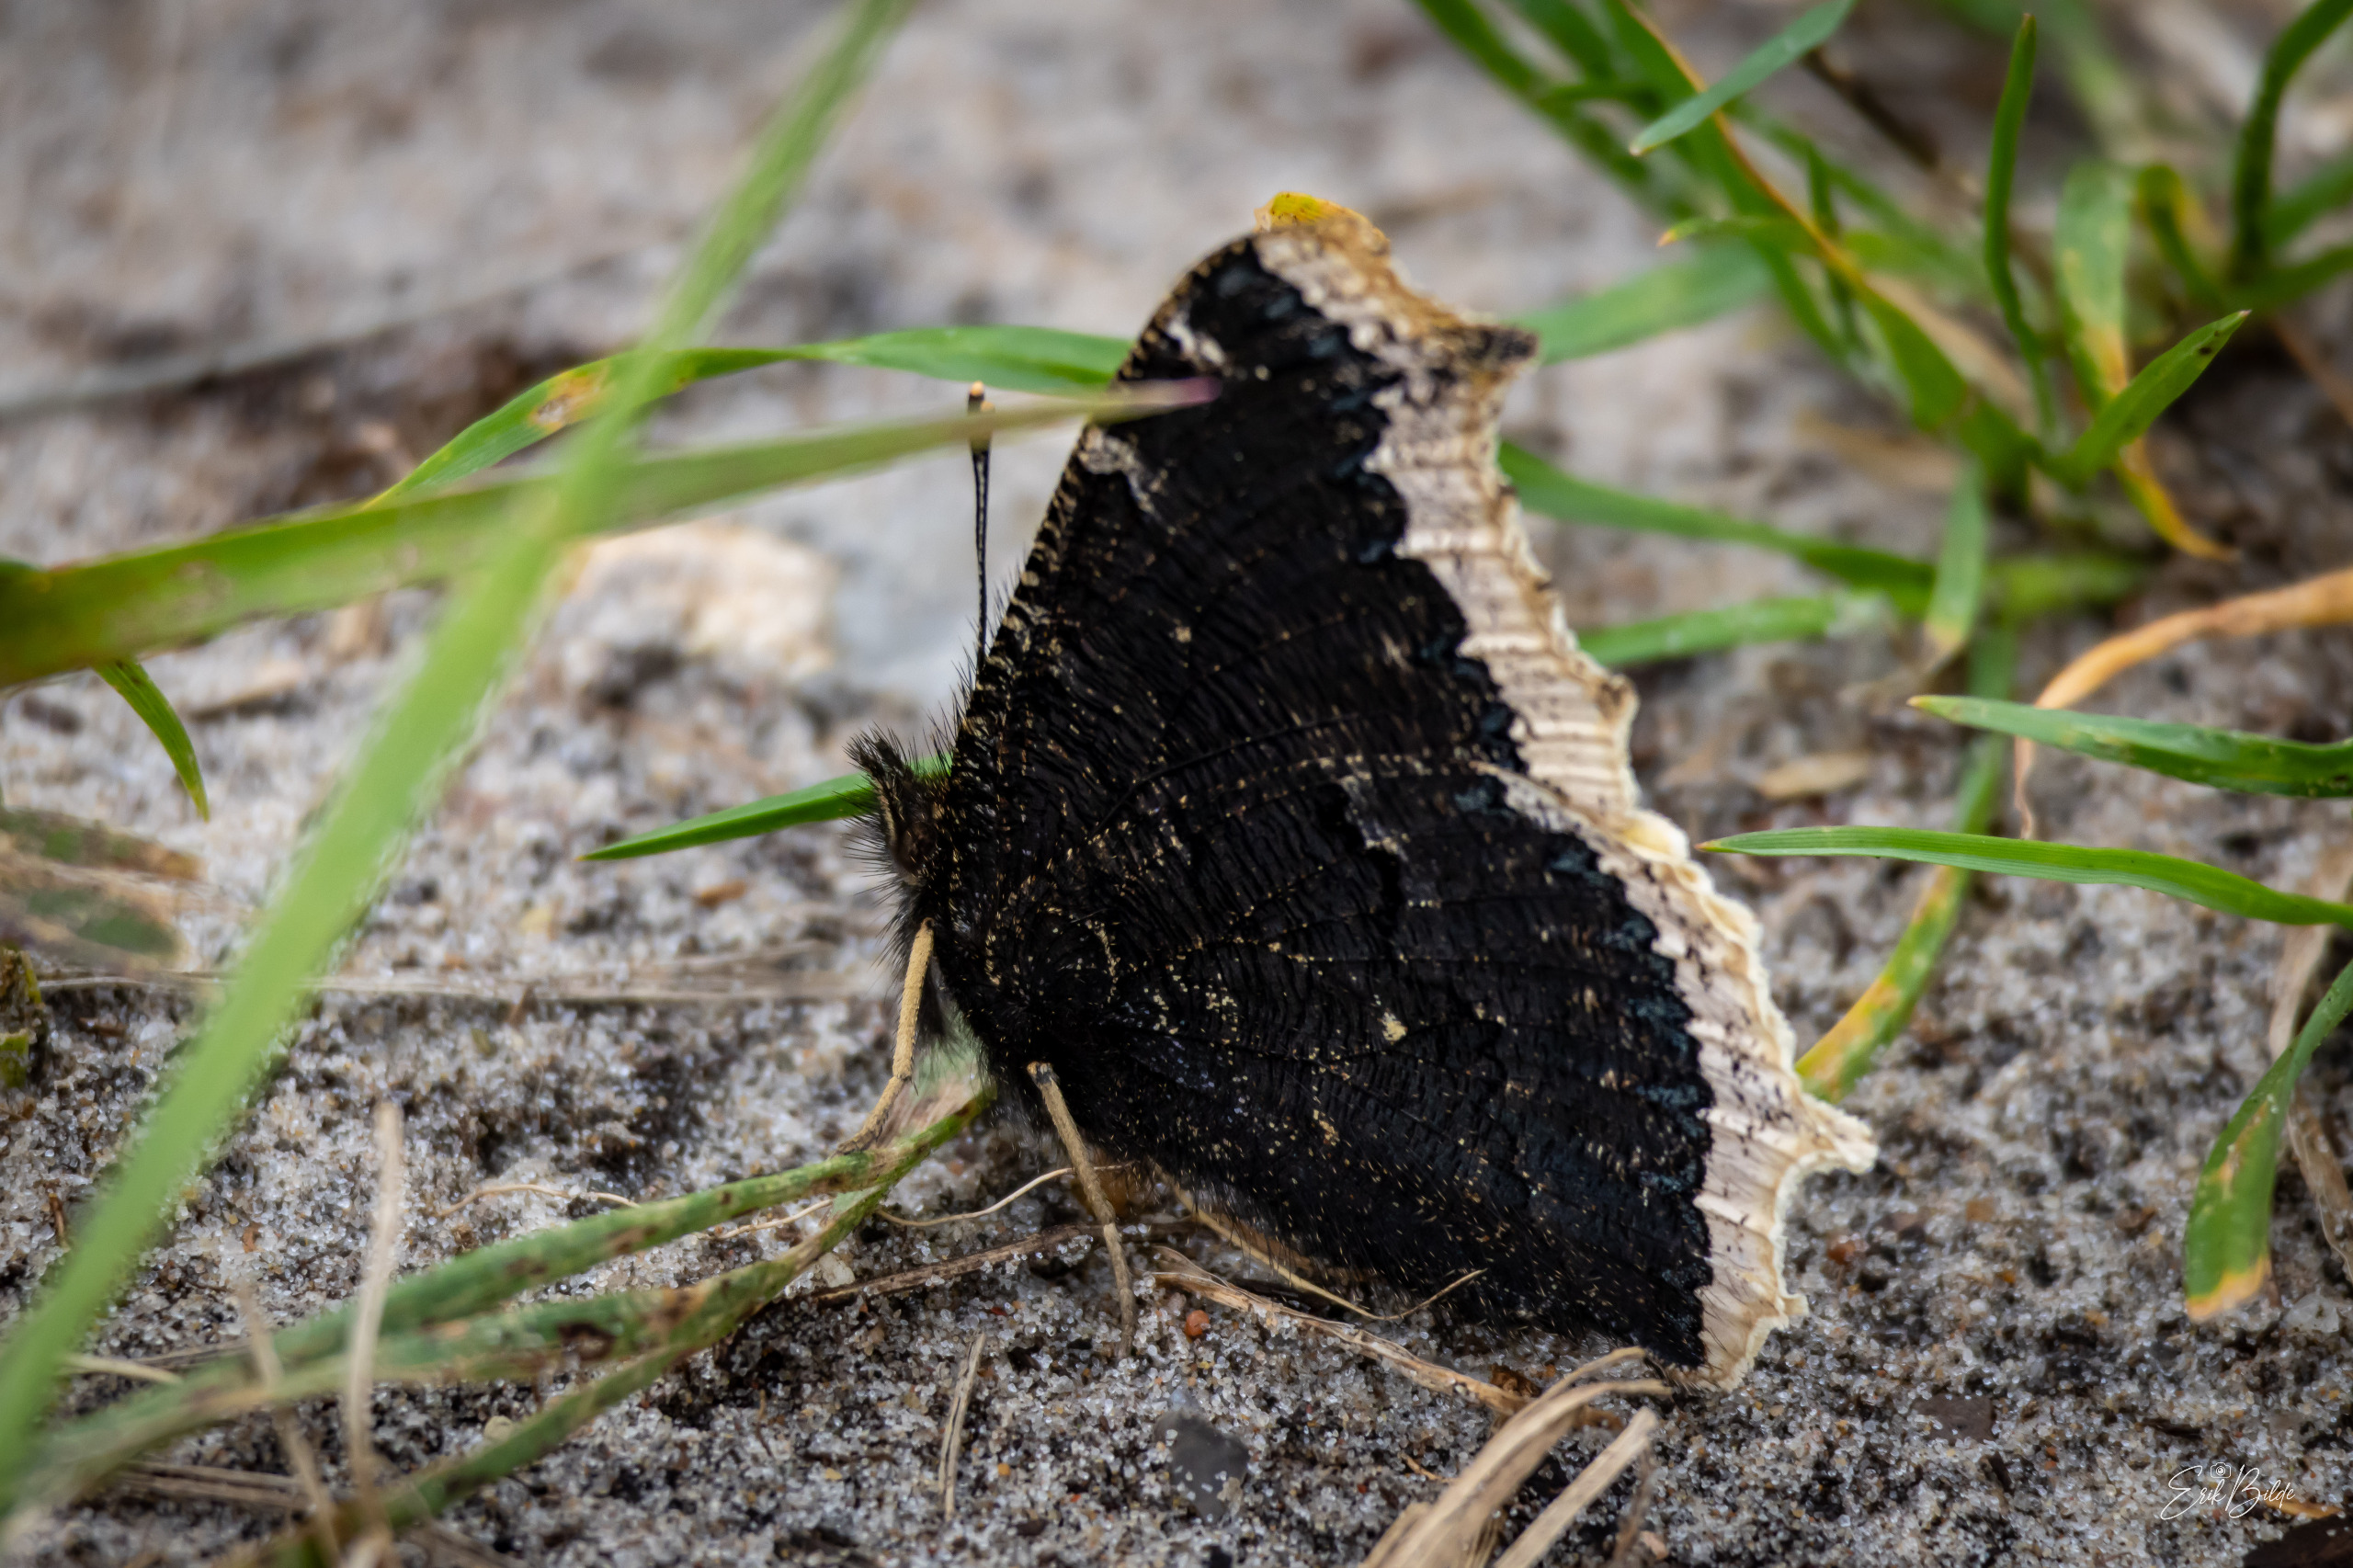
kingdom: Animalia
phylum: Arthropoda
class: Insecta
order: Lepidoptera
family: Nymphalidae
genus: Nymphalis
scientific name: Nymphalis antiopa
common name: Sørgekåbe
